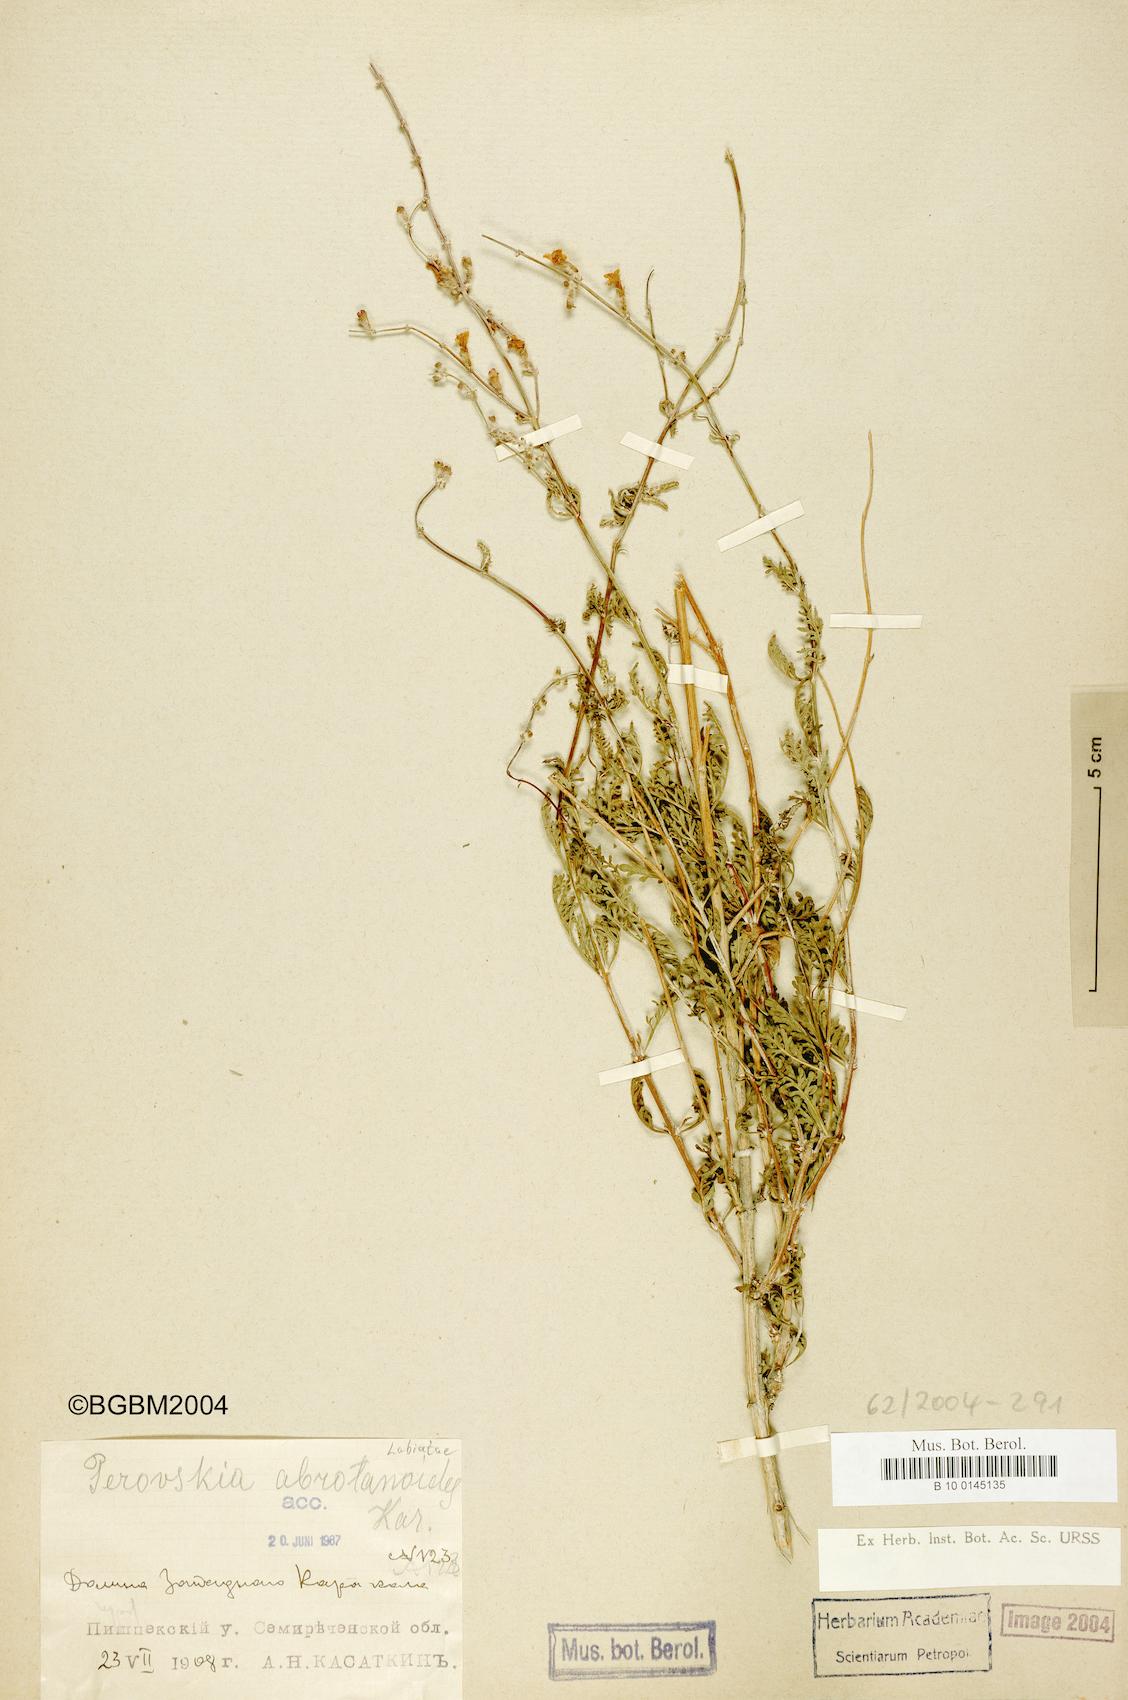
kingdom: Plantae
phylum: Tracheophyta
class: Magnoliopsida
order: Lamiales
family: Lamiaceae
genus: Salvia
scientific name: Salvia abrotanoides
